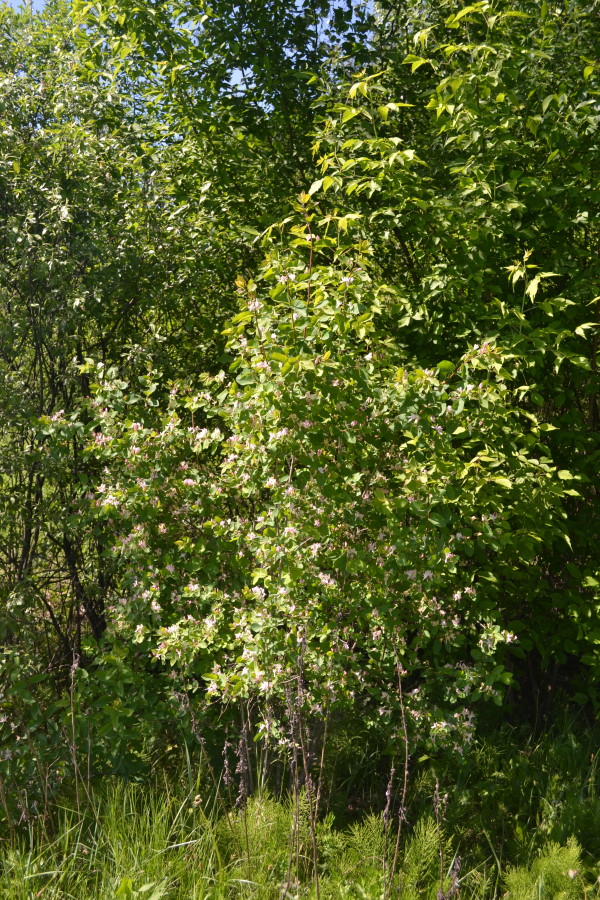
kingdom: Plantae
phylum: Tracheophyta
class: Magnoliopsida
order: Dipsacales
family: Caprifoliaceae
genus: Lonicera
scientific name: Lonicera tatarica
